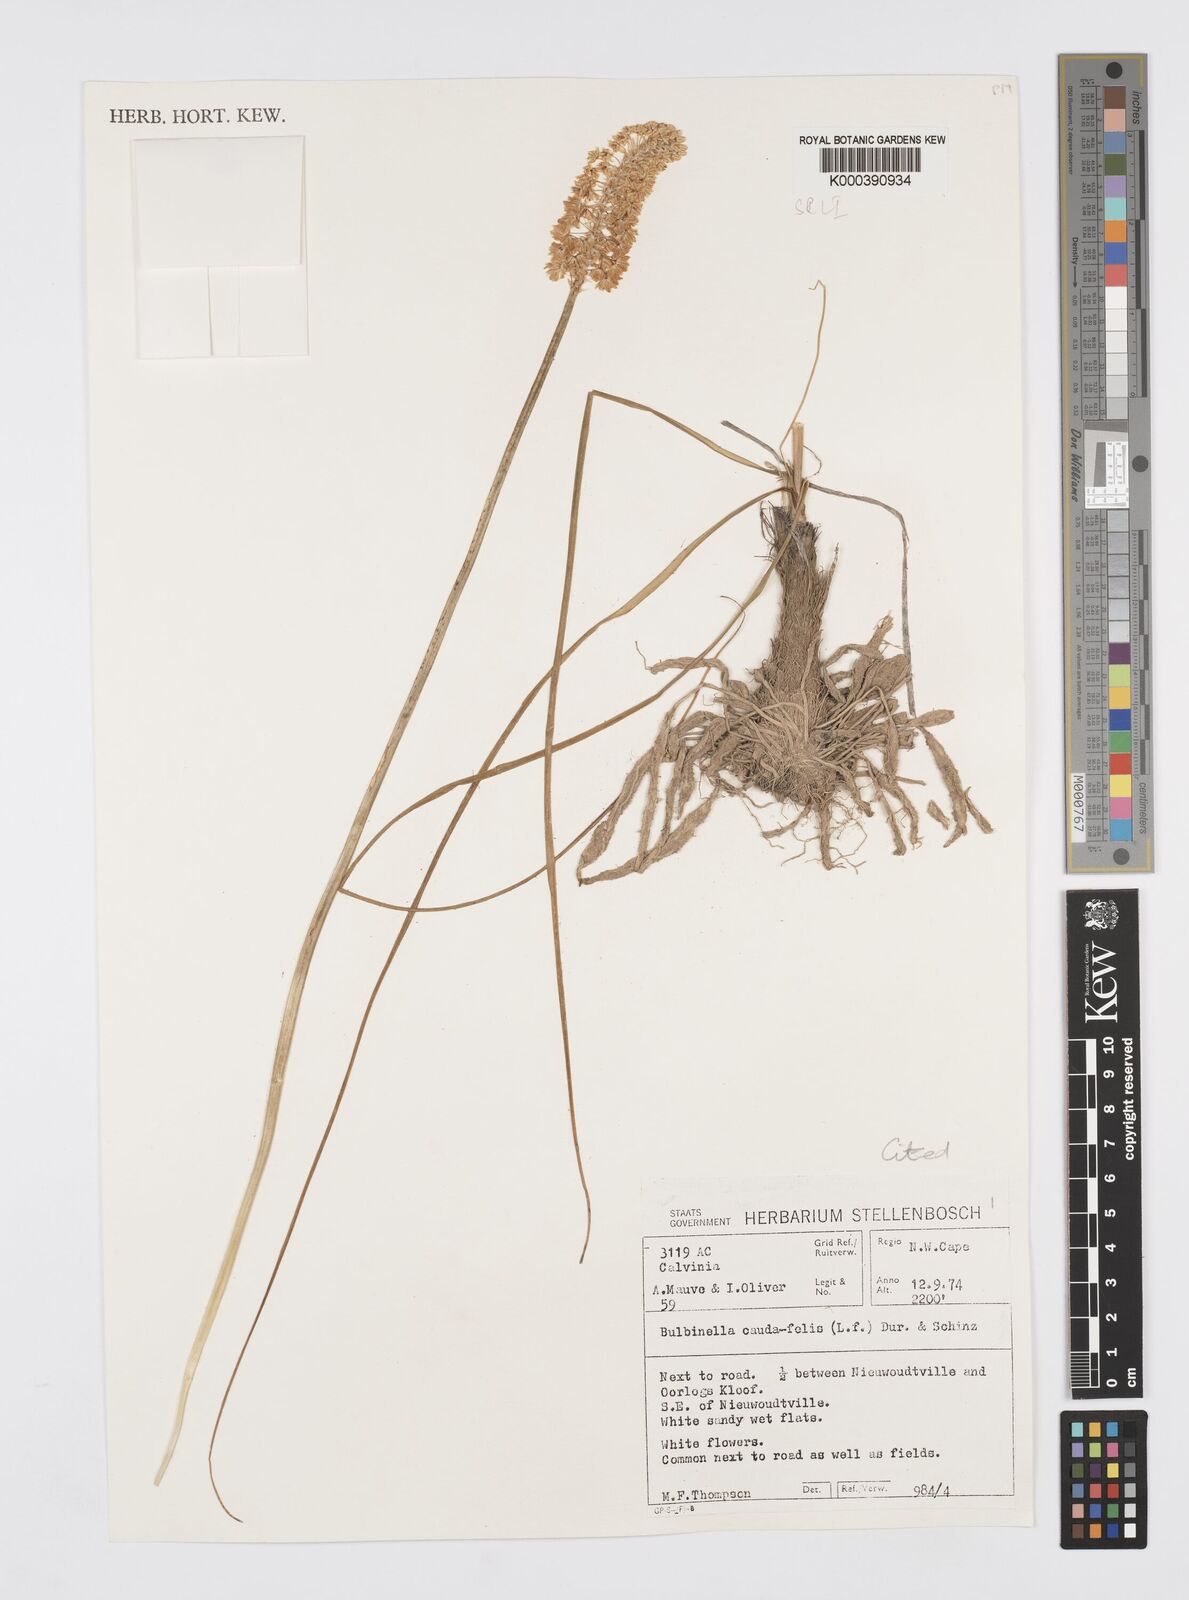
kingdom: Plantae
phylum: Tracheophyta
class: Liliopsida
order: Asparagales
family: Asphodelaceae
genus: Bulbinella
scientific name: Bulbinella eburniflora
